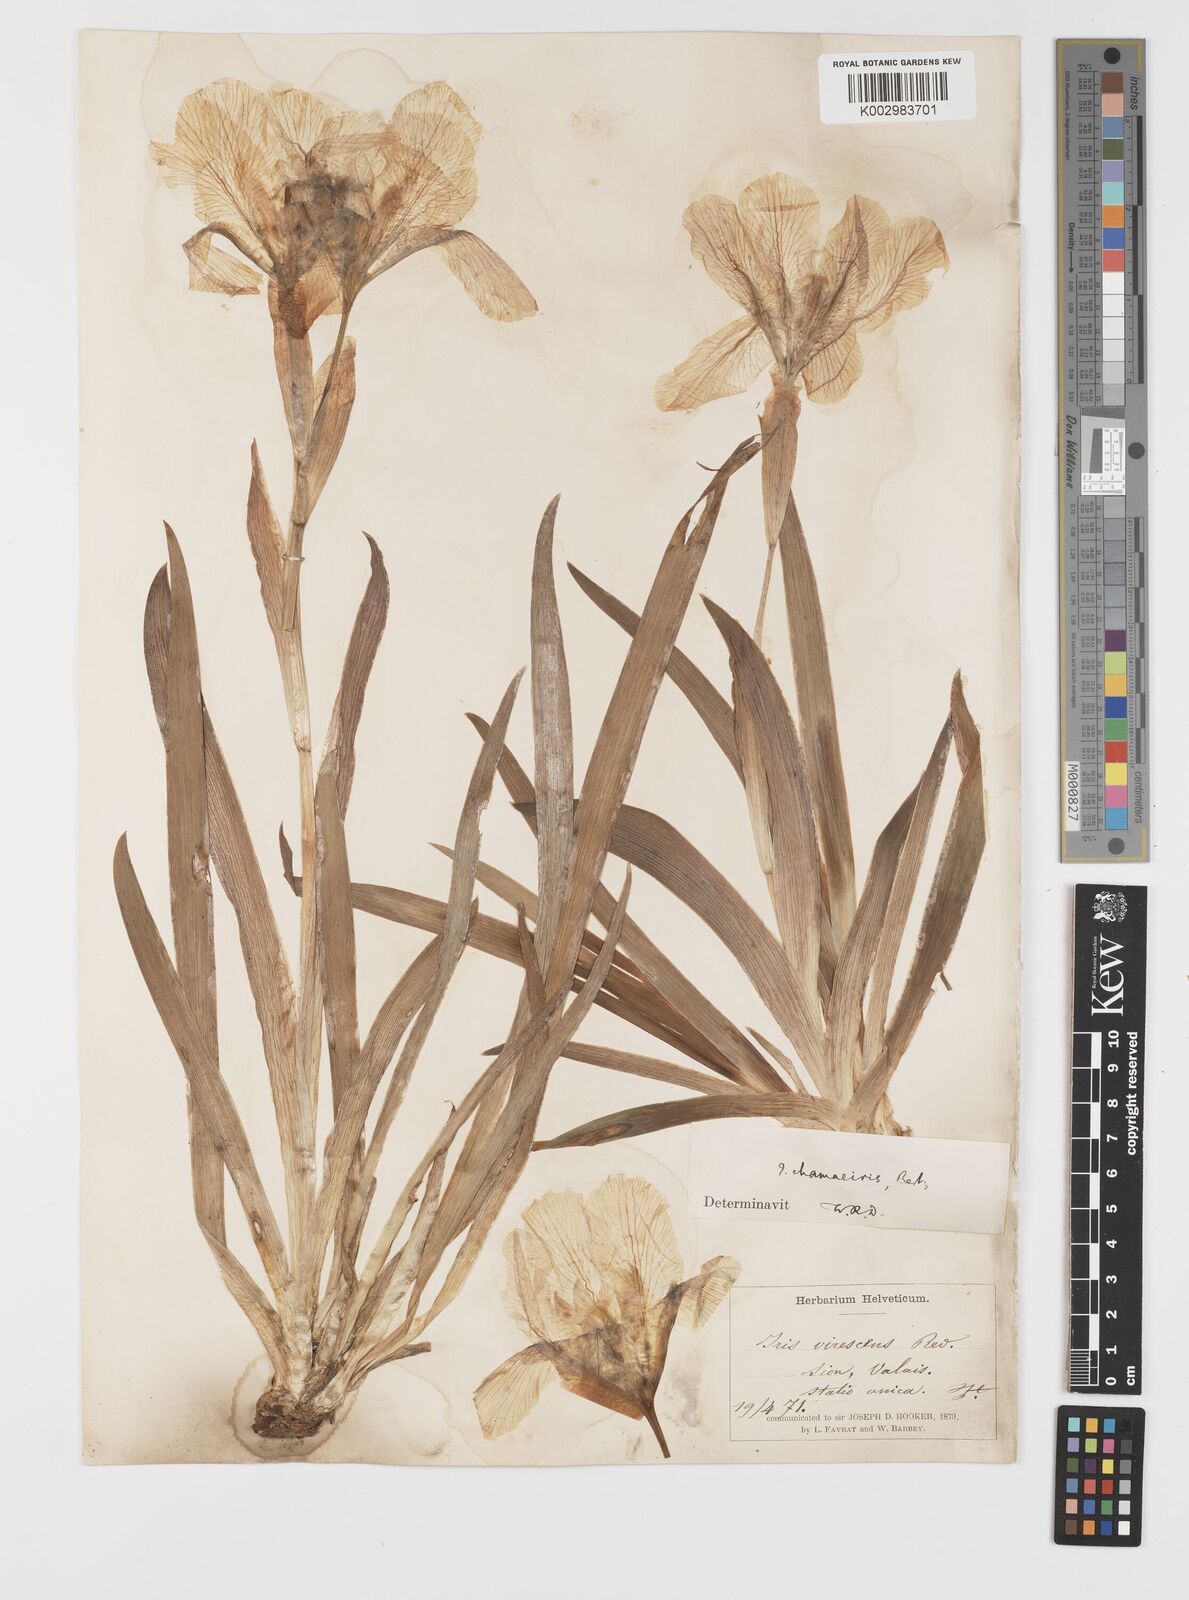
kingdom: Plantae
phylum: Tracheophyta
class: Liliopsida
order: Asparagales
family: Iridaceae
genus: Iris
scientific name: Iris lutescens
